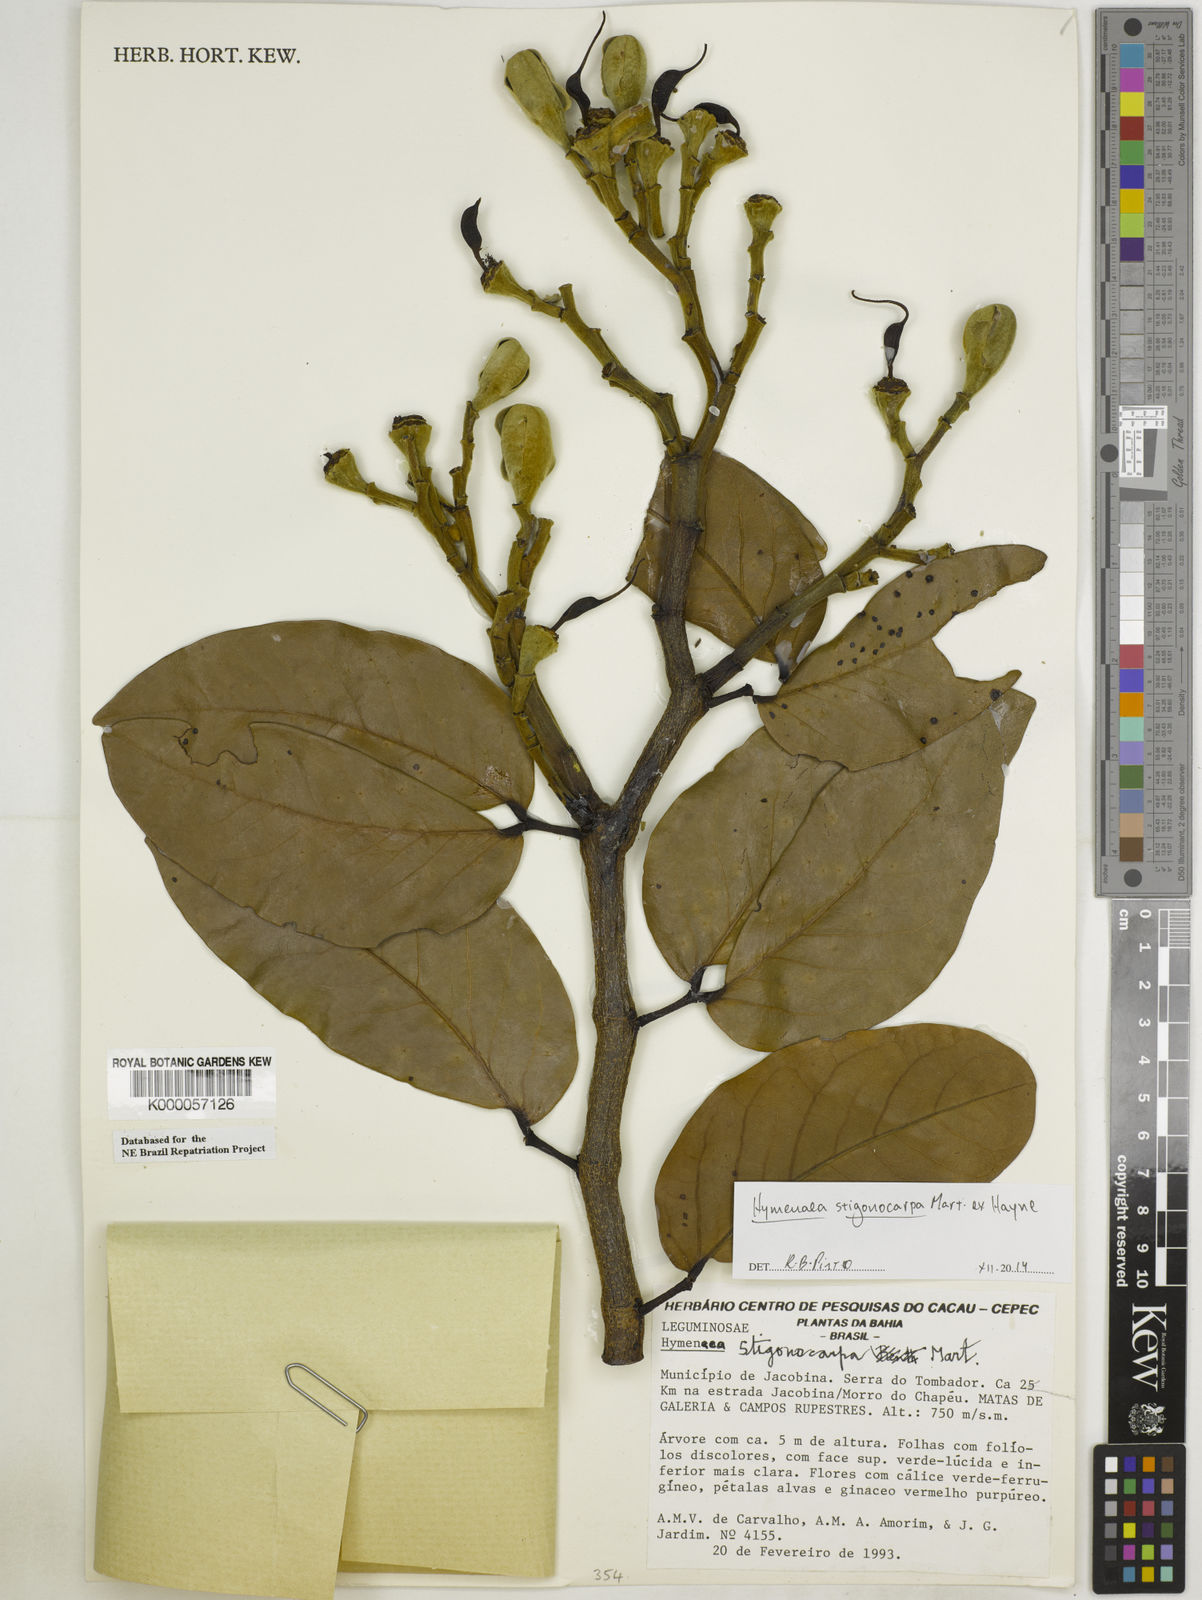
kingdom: Plantae
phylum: Tracheophyta
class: Magnoliopsida
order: Fabales
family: Fabaceae
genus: Hymenaea
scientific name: Hymenaea stigonocarpa
